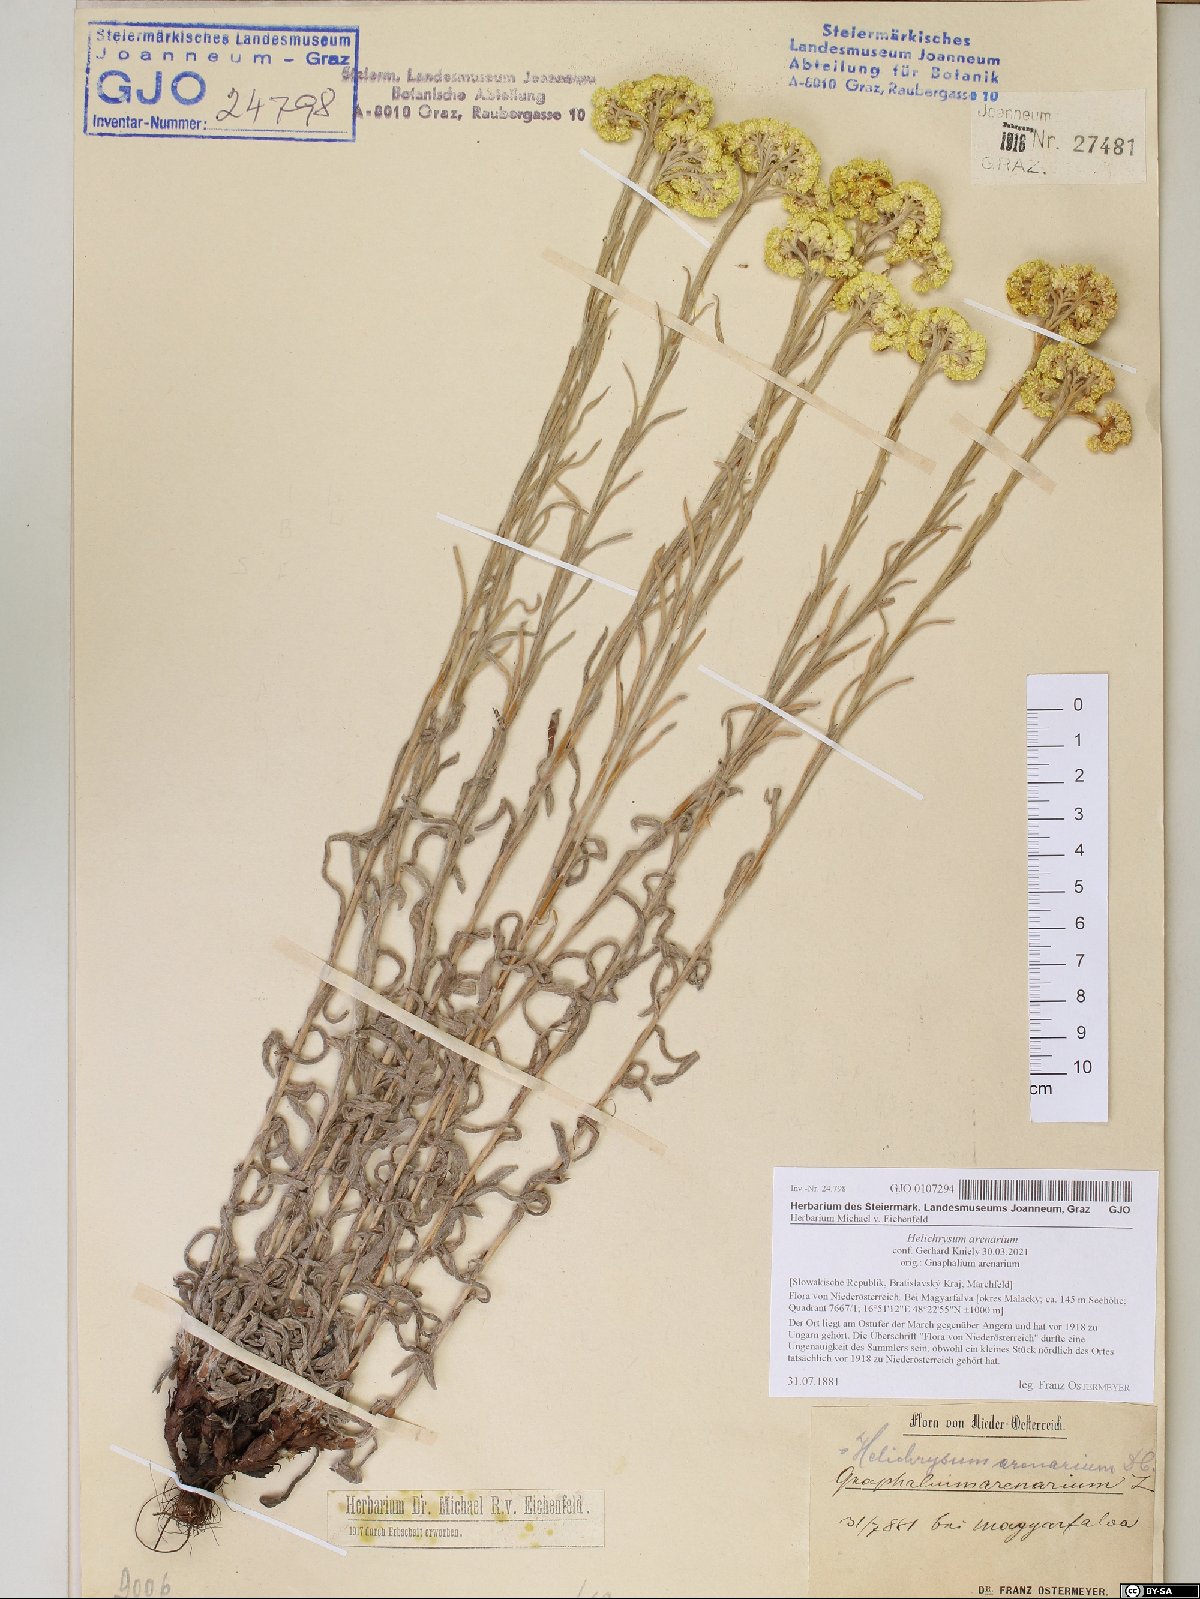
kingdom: Plantae
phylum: Tracheophyta
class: Magnoliopsida
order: Asterales
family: Asteraceae
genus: Helichrysum
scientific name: Helichrysum arenarium
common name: Strawflower
